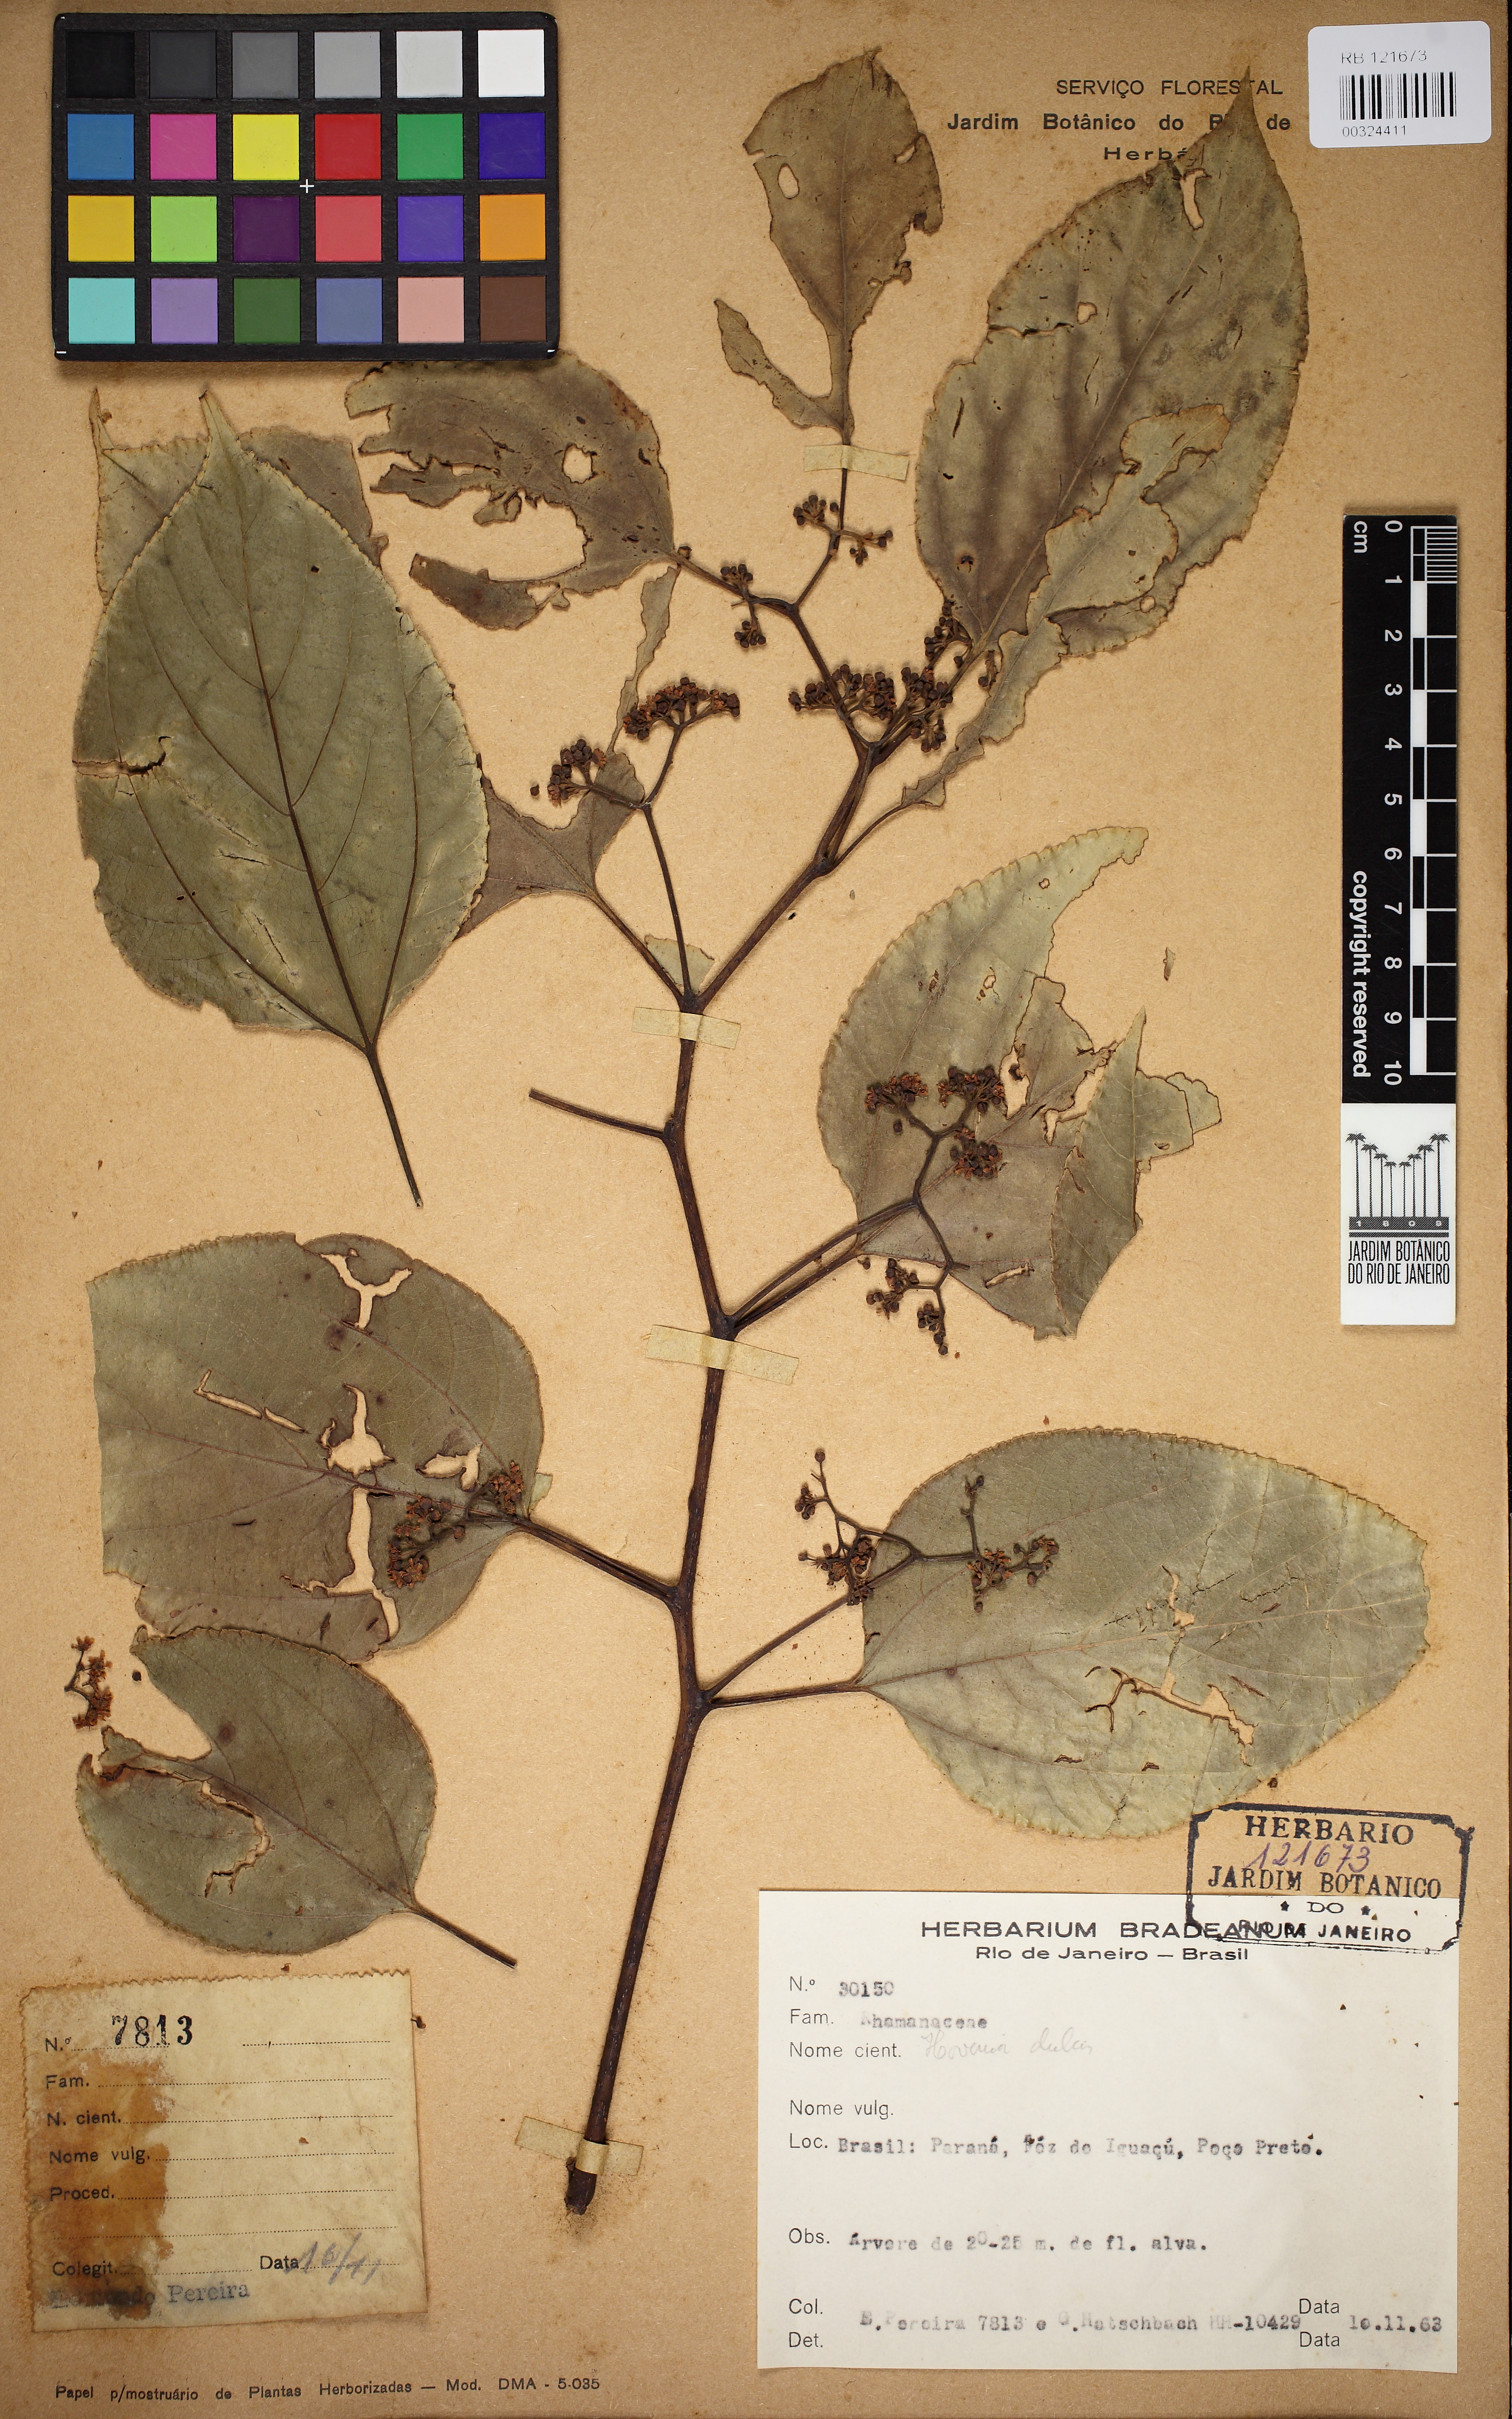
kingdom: Plantae
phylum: Tracheophyta
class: Magnoliopsida
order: Rosales
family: Rhamnaceae
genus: Gouania
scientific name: Gouania
